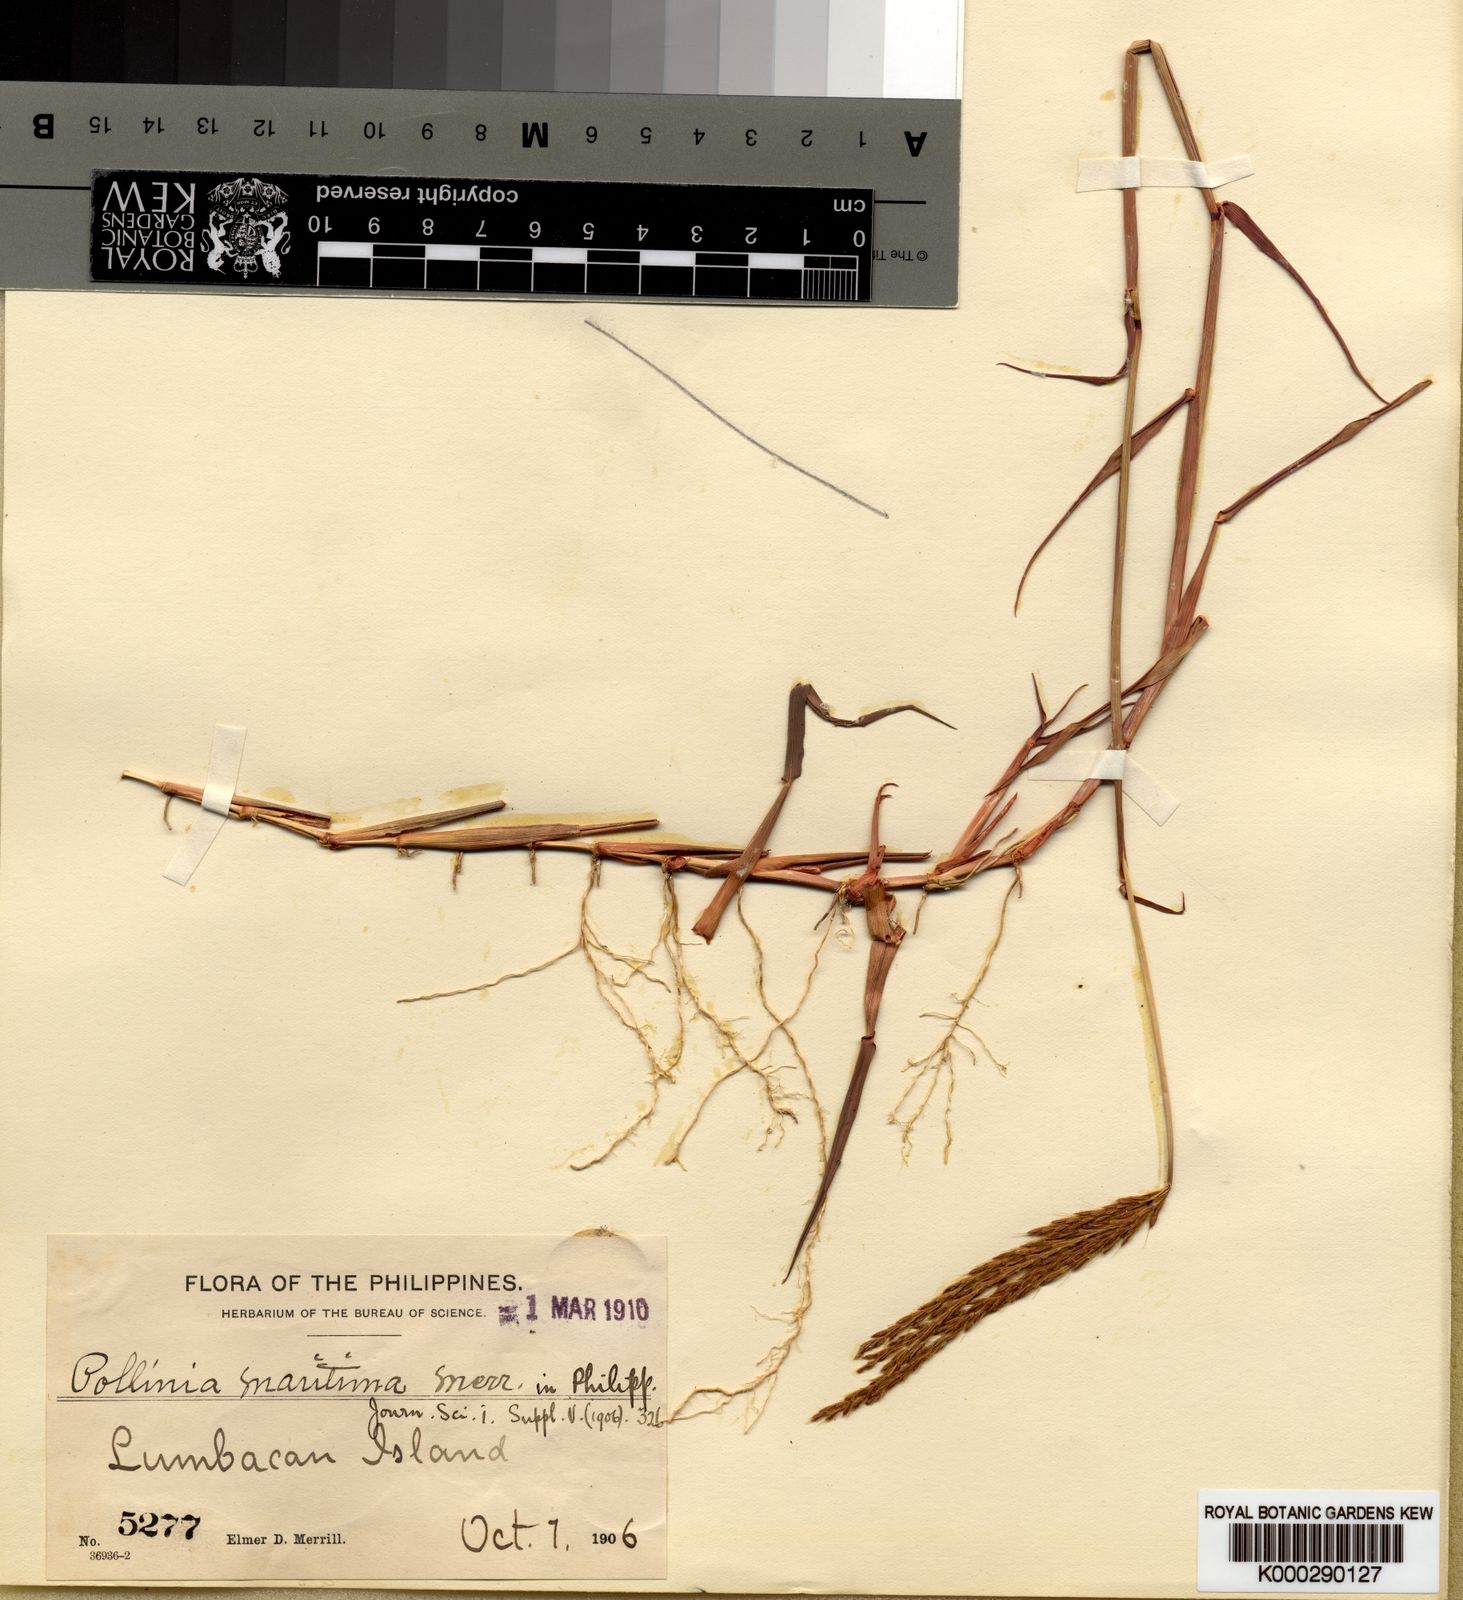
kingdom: Plantae
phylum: Tracheophyta
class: Liliopsida
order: Poales
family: Poaceae
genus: Eulalia
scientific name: Eulalia maritima
